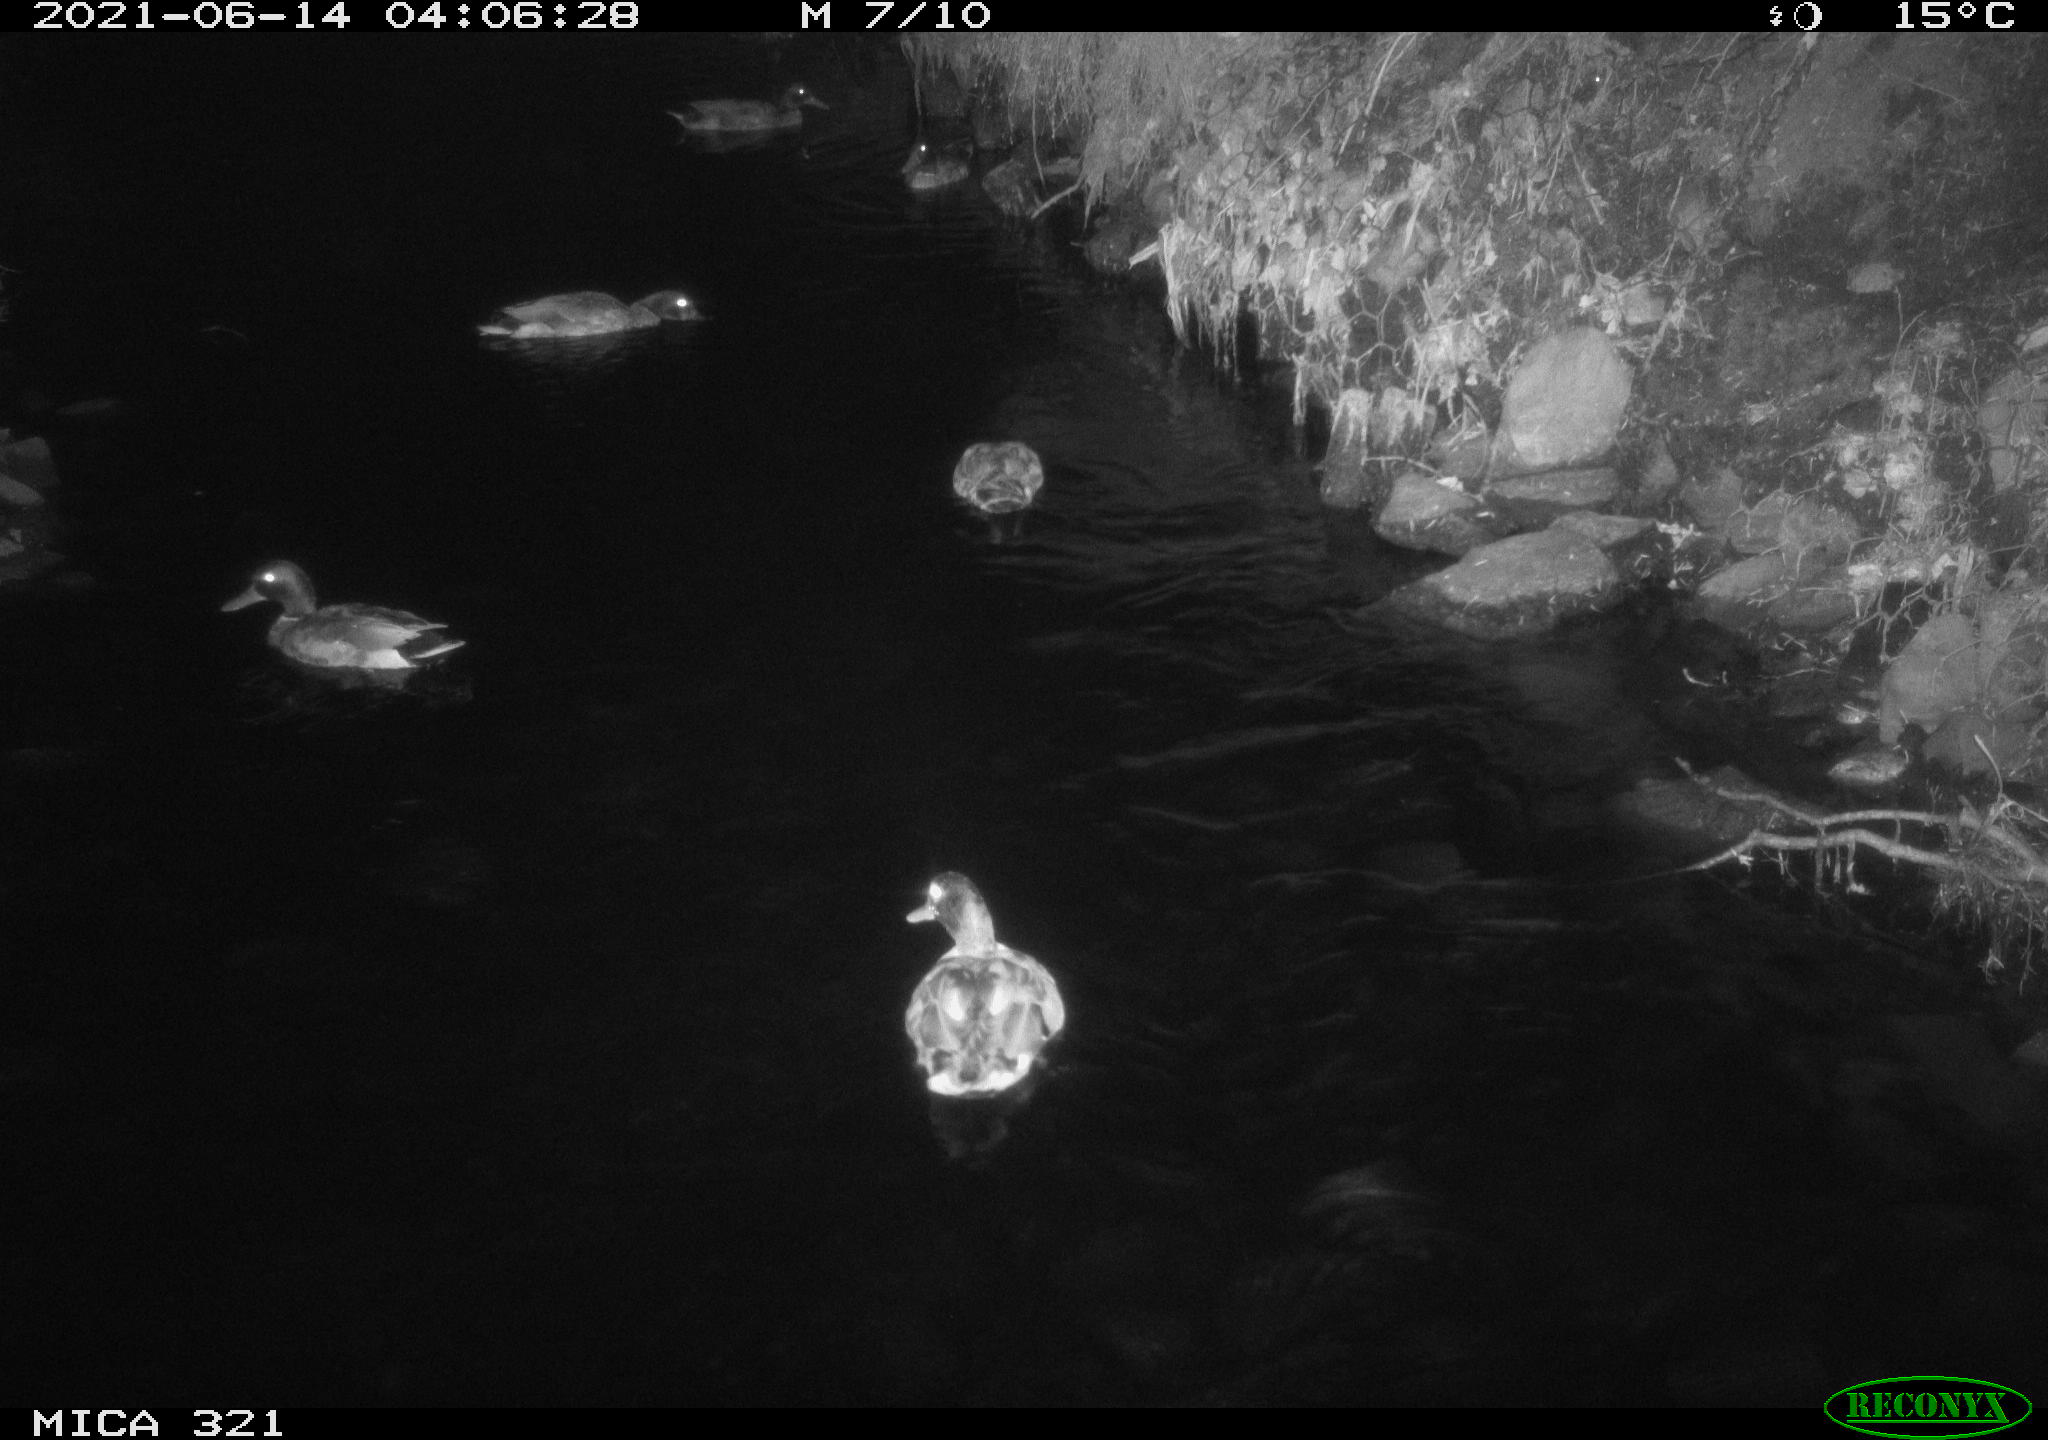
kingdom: Animalia
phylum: Chordata
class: Aves
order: Anseriformes
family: Anatidae
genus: Anas
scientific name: Anas platyrhynchos
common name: Mallard
